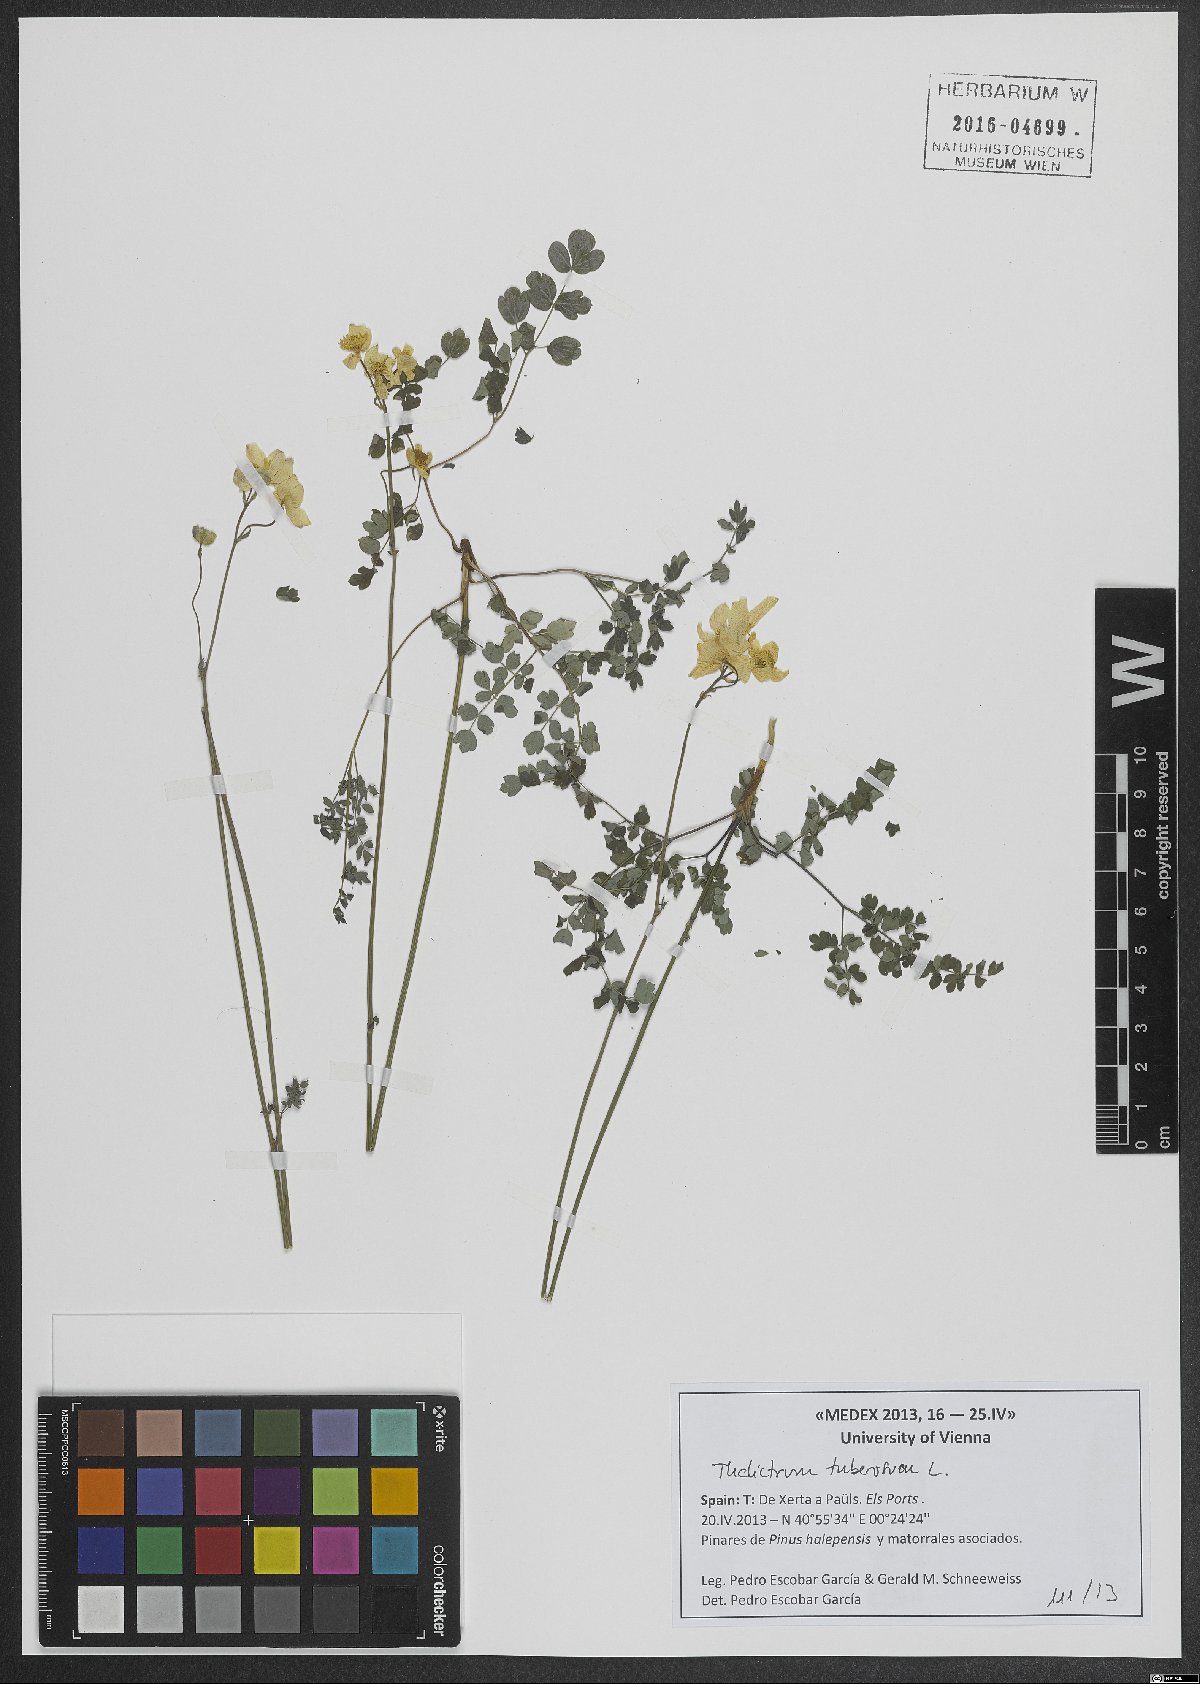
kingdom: Plantae
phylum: Tracheophyta
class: Magnoliopsida
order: Ranunculales
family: Ranunculaceae
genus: Thalictrum
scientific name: Thalictrum tuberosum
